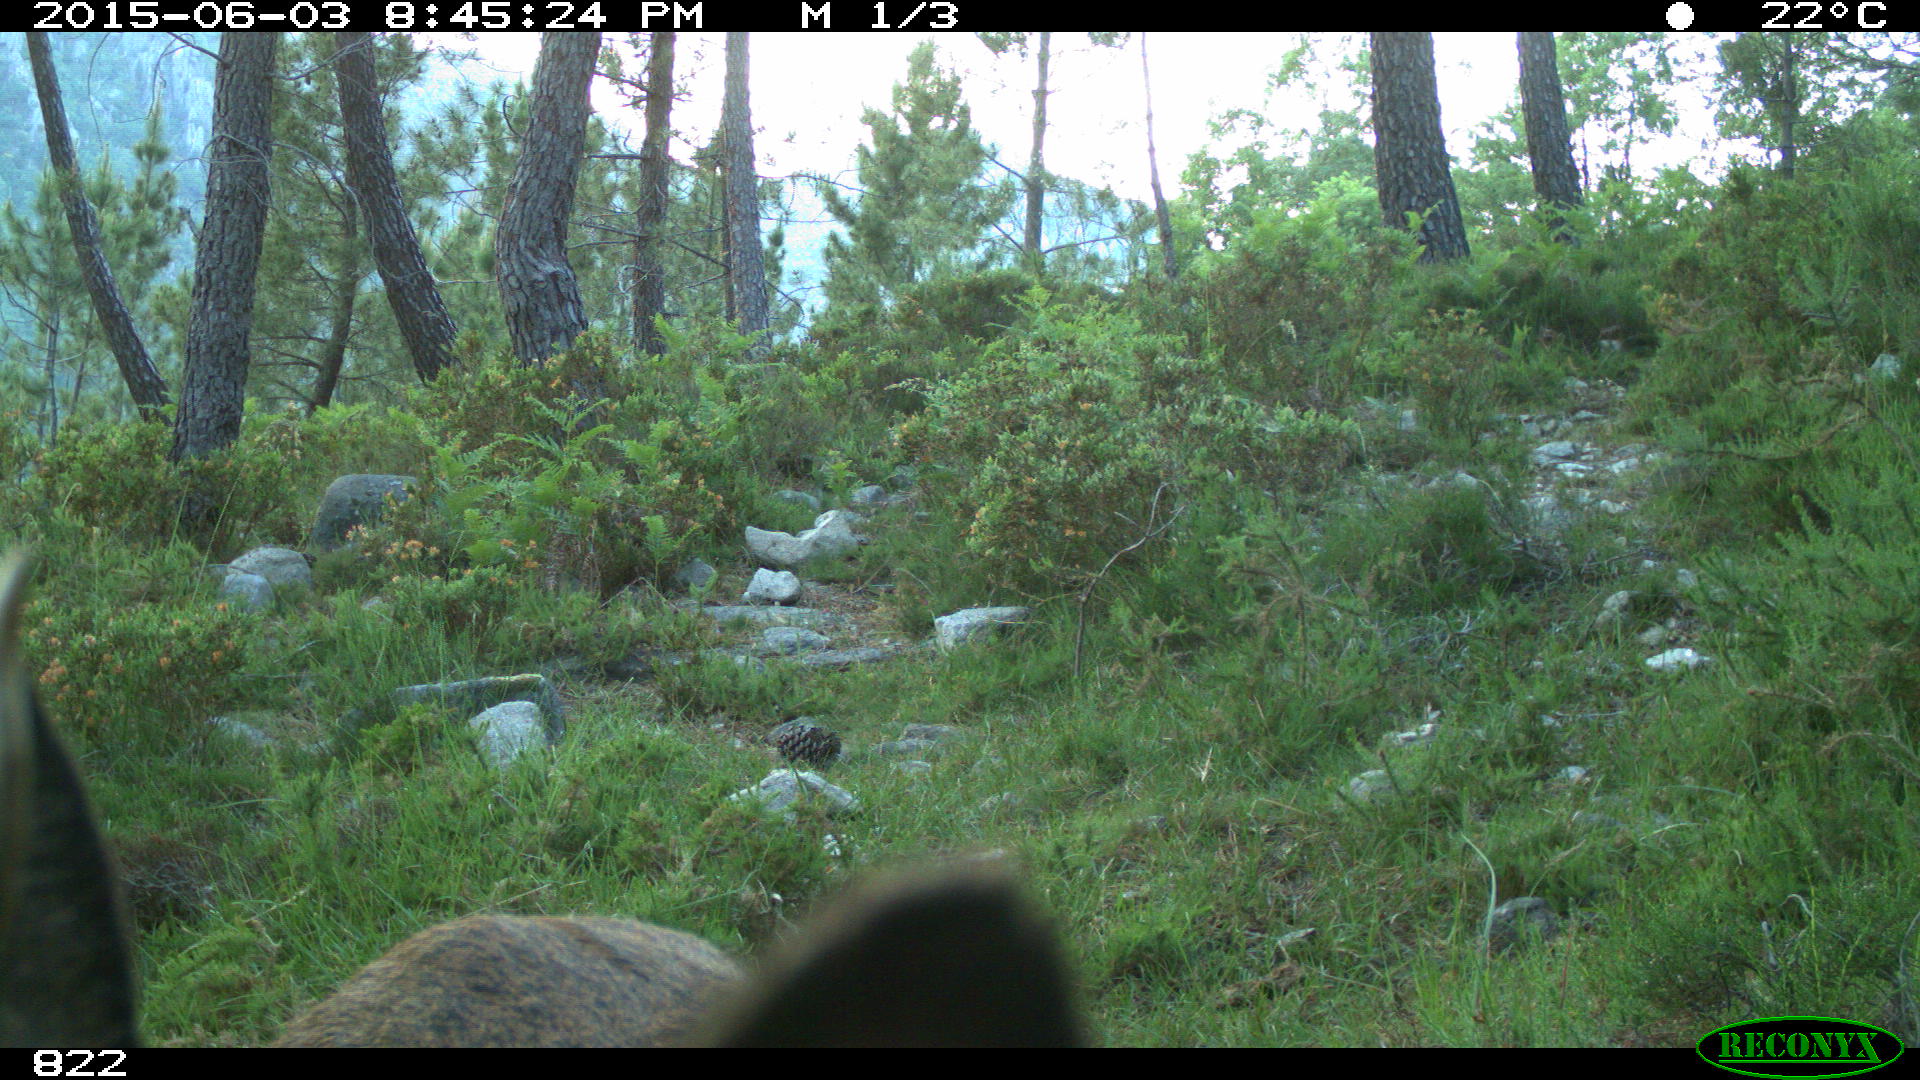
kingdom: Animalia
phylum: Chordata
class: Mammalia
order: Artiodactyla
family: Cervidae
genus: Capreolus
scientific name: Capreolus capreolus
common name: Western roe deer
